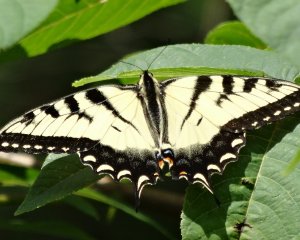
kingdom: Animalia
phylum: Arthropoda
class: Insecta
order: Lepidoptera
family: Papilionidae
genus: Pterourus
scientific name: Pterourus glaucus
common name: Eastern Tiger Swallowtail
